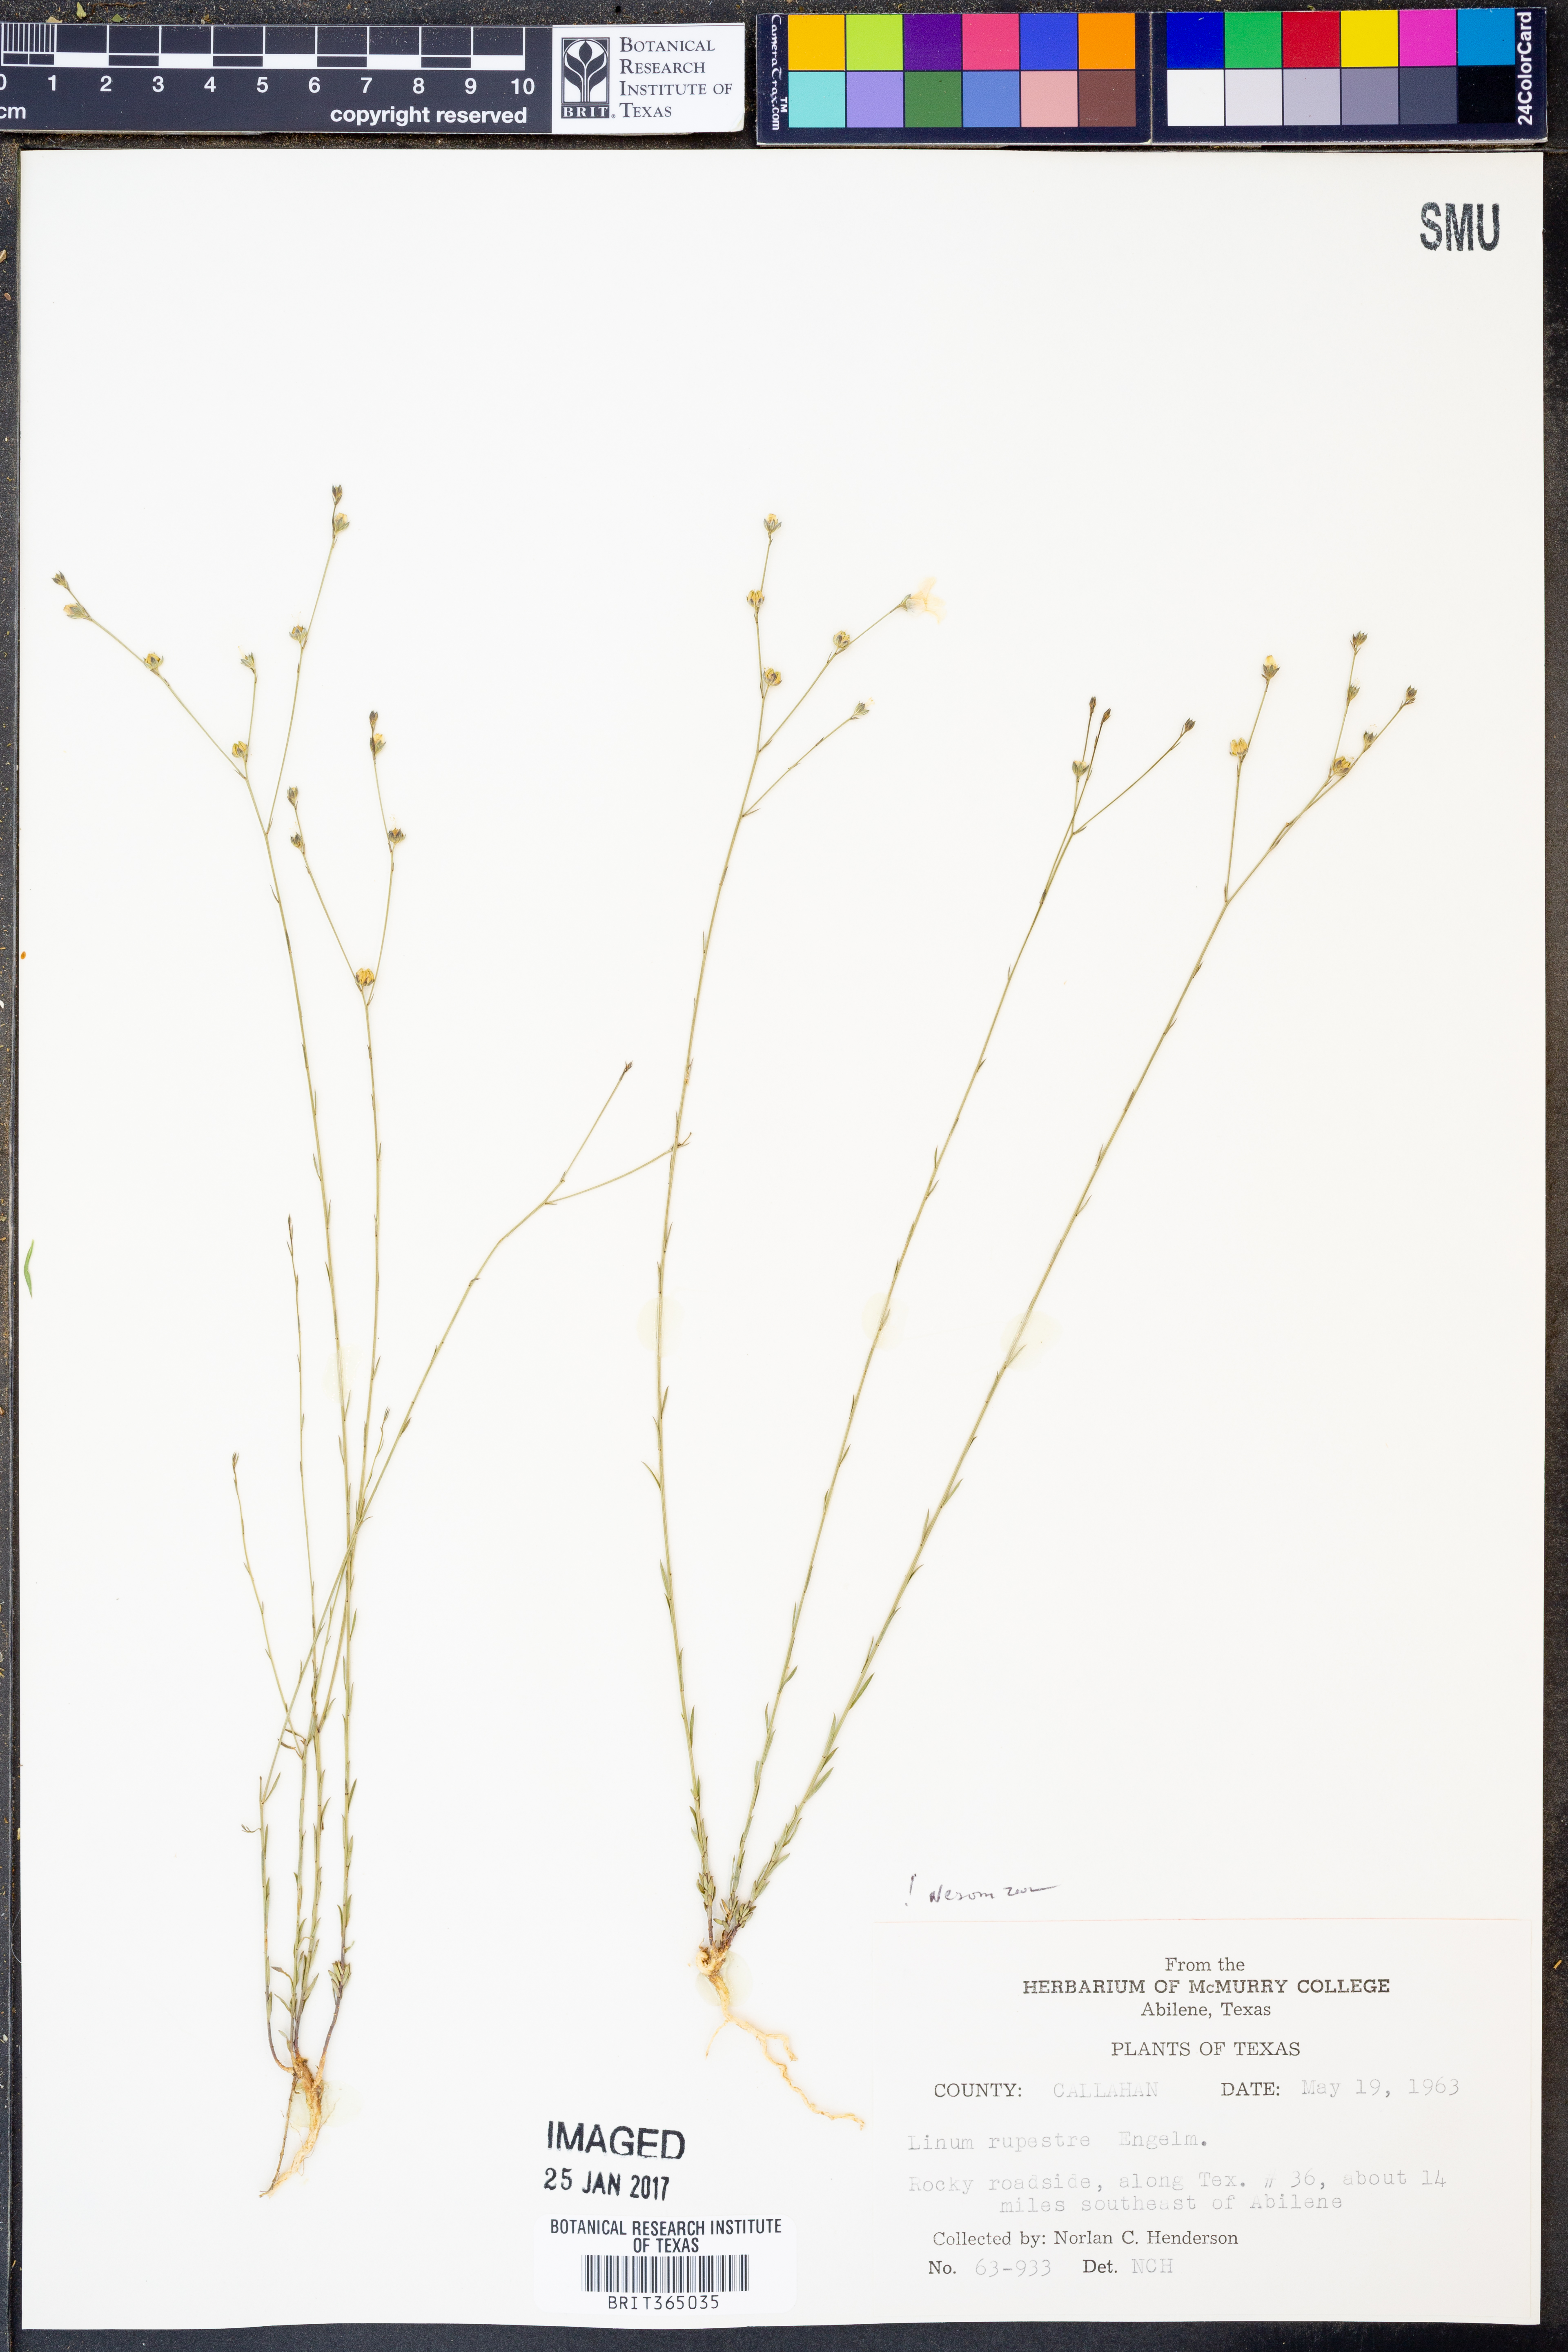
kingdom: Plantae
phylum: Tracheophyta
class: Magnoliopsida
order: Malpighiales
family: Linaceae
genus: Linum
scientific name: Linum rupestre
